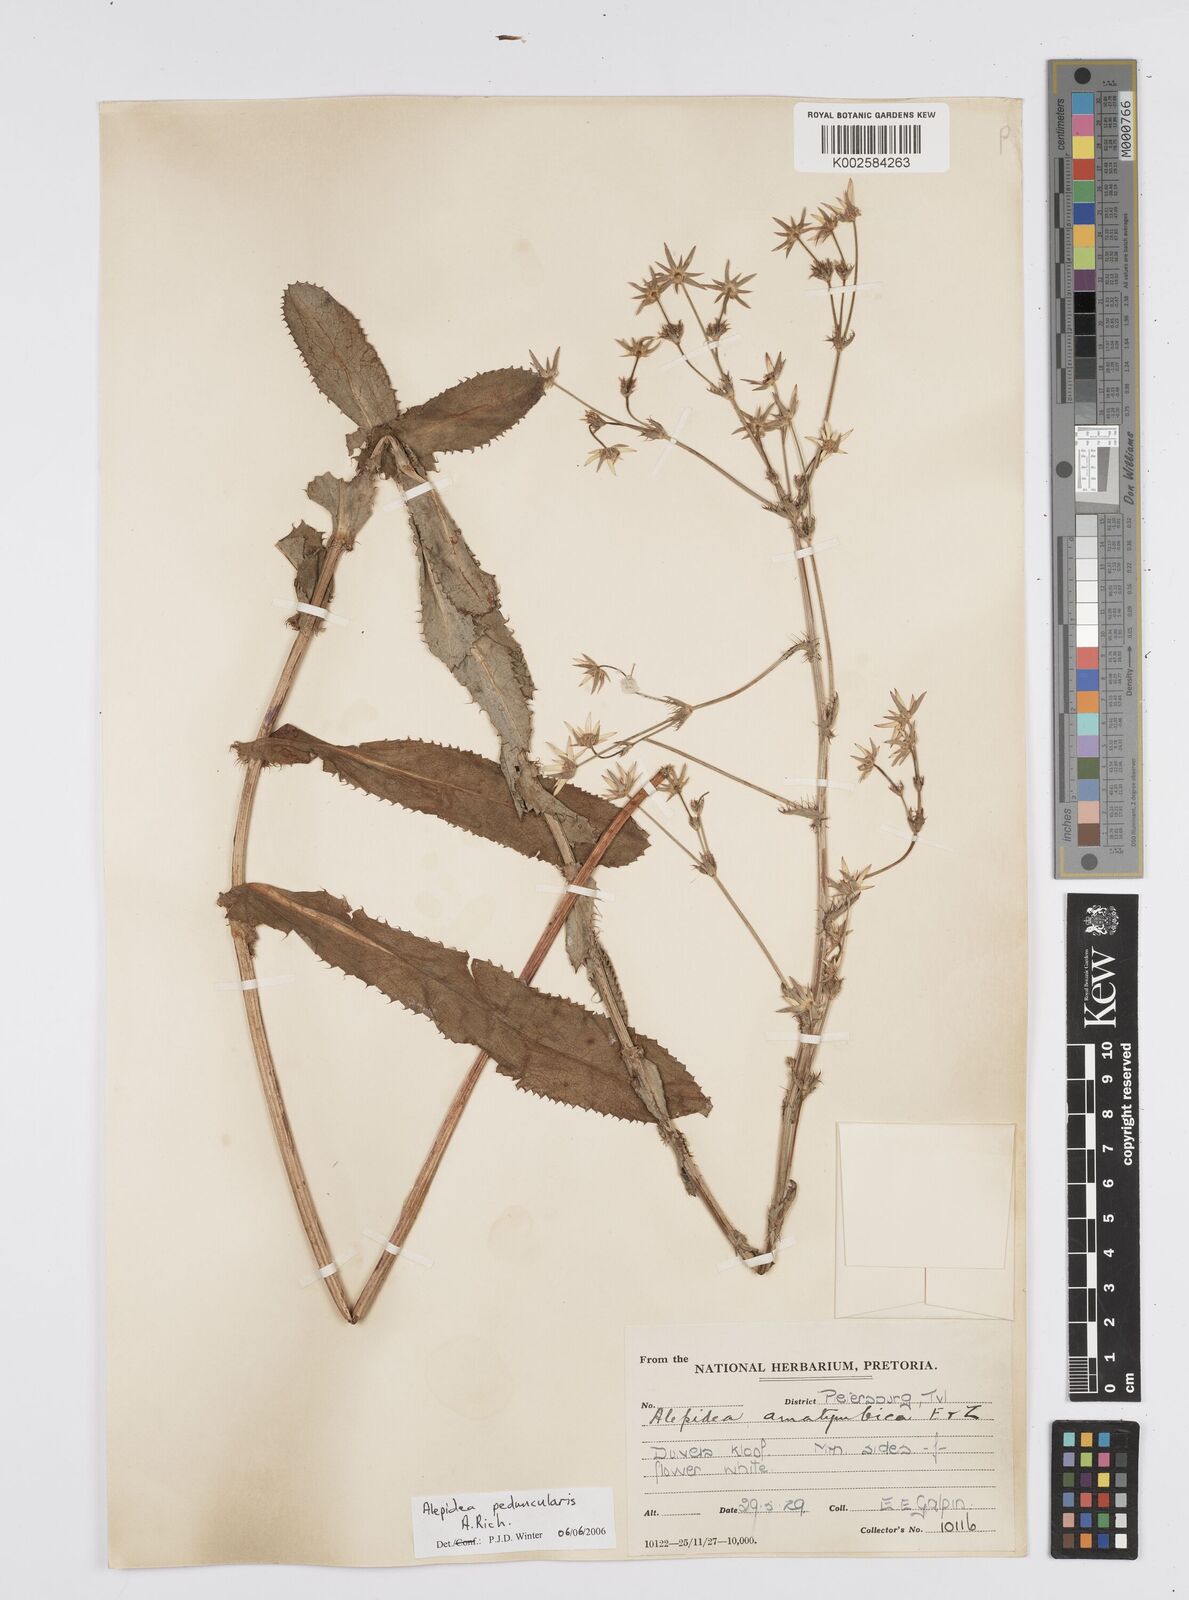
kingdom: Plantae
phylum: Tracheophyta
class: Magnoliopsida
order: Apiales
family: Apiaceae
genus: Alepidea
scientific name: Alepidea peduncularis
